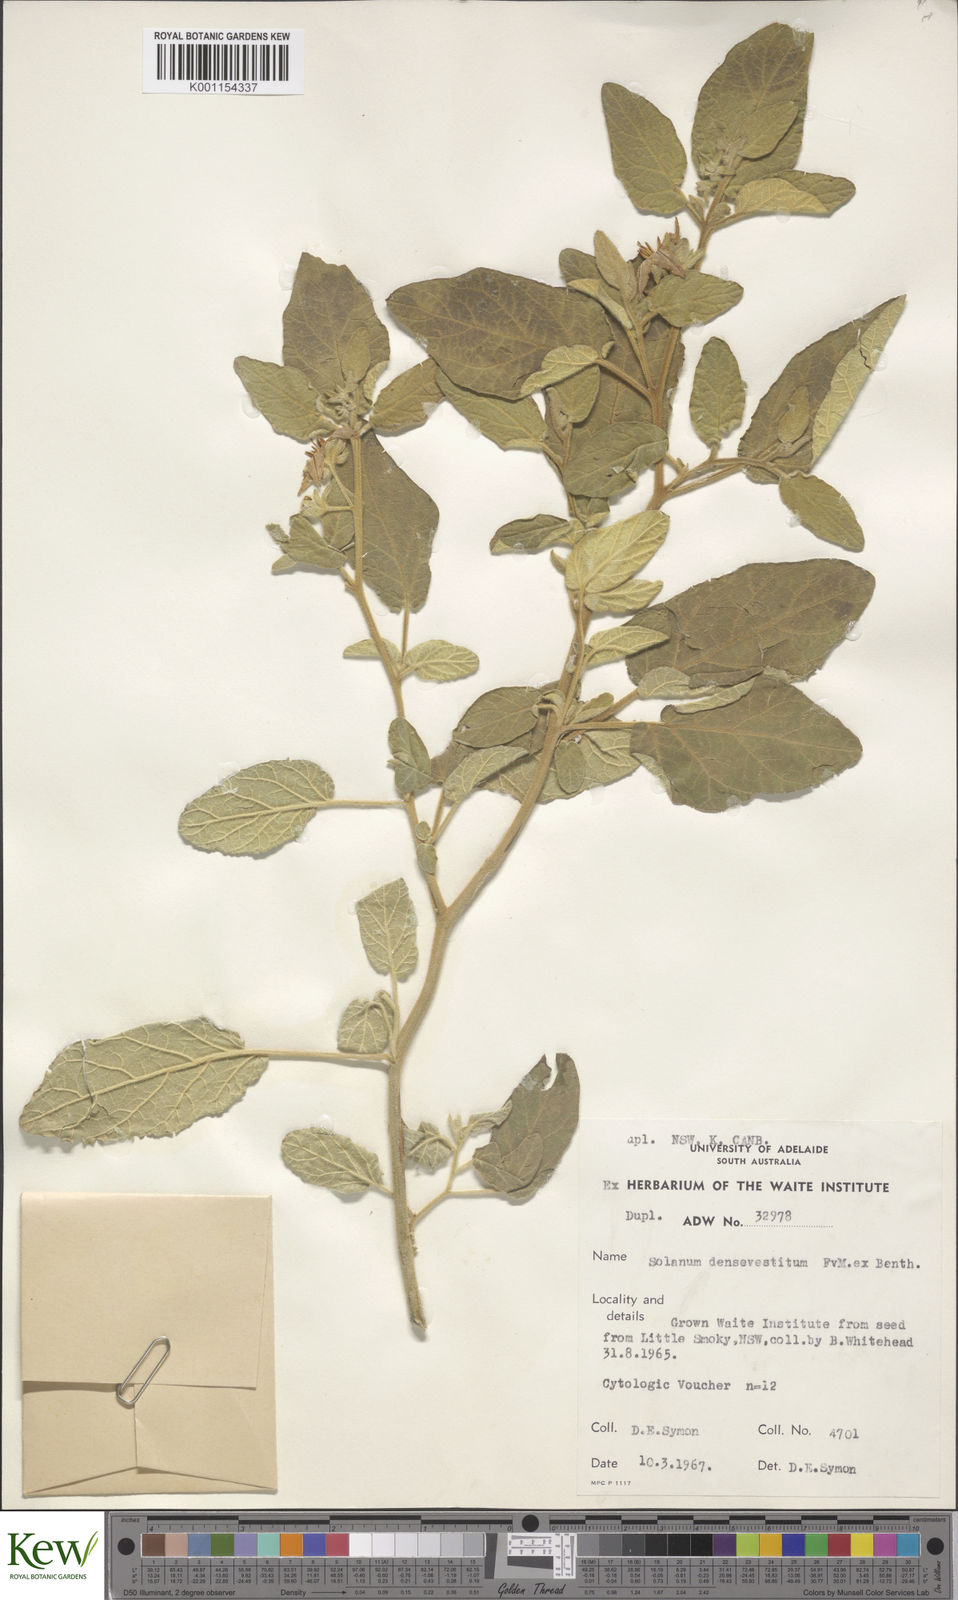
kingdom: Plantae
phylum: Tracheophyta
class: Magnoliopsida
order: Solanales
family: Solanaceae
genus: Solanum
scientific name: Solanum densevestitum
